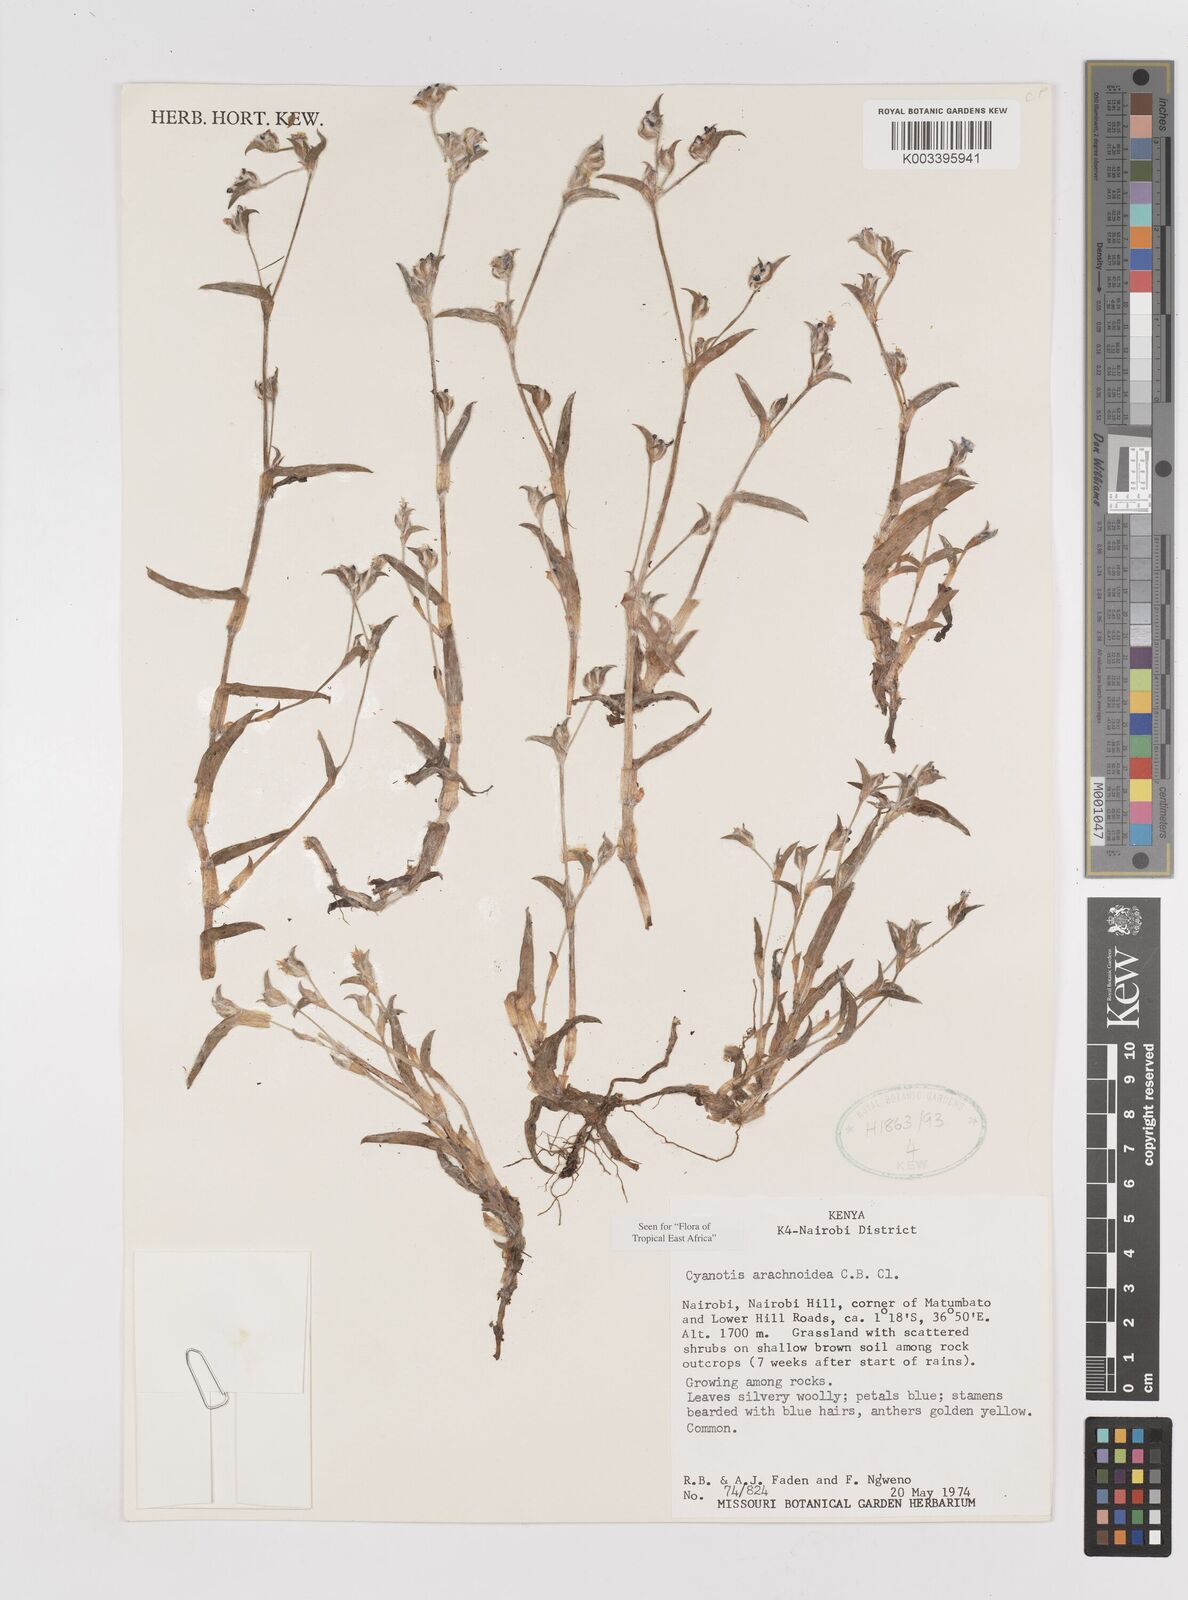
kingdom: Plantae
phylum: Tracheophyta
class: Liliopsida
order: Commelinales
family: Commelinaceae
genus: Cyanotis
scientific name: Cyanotis arachnoidea
